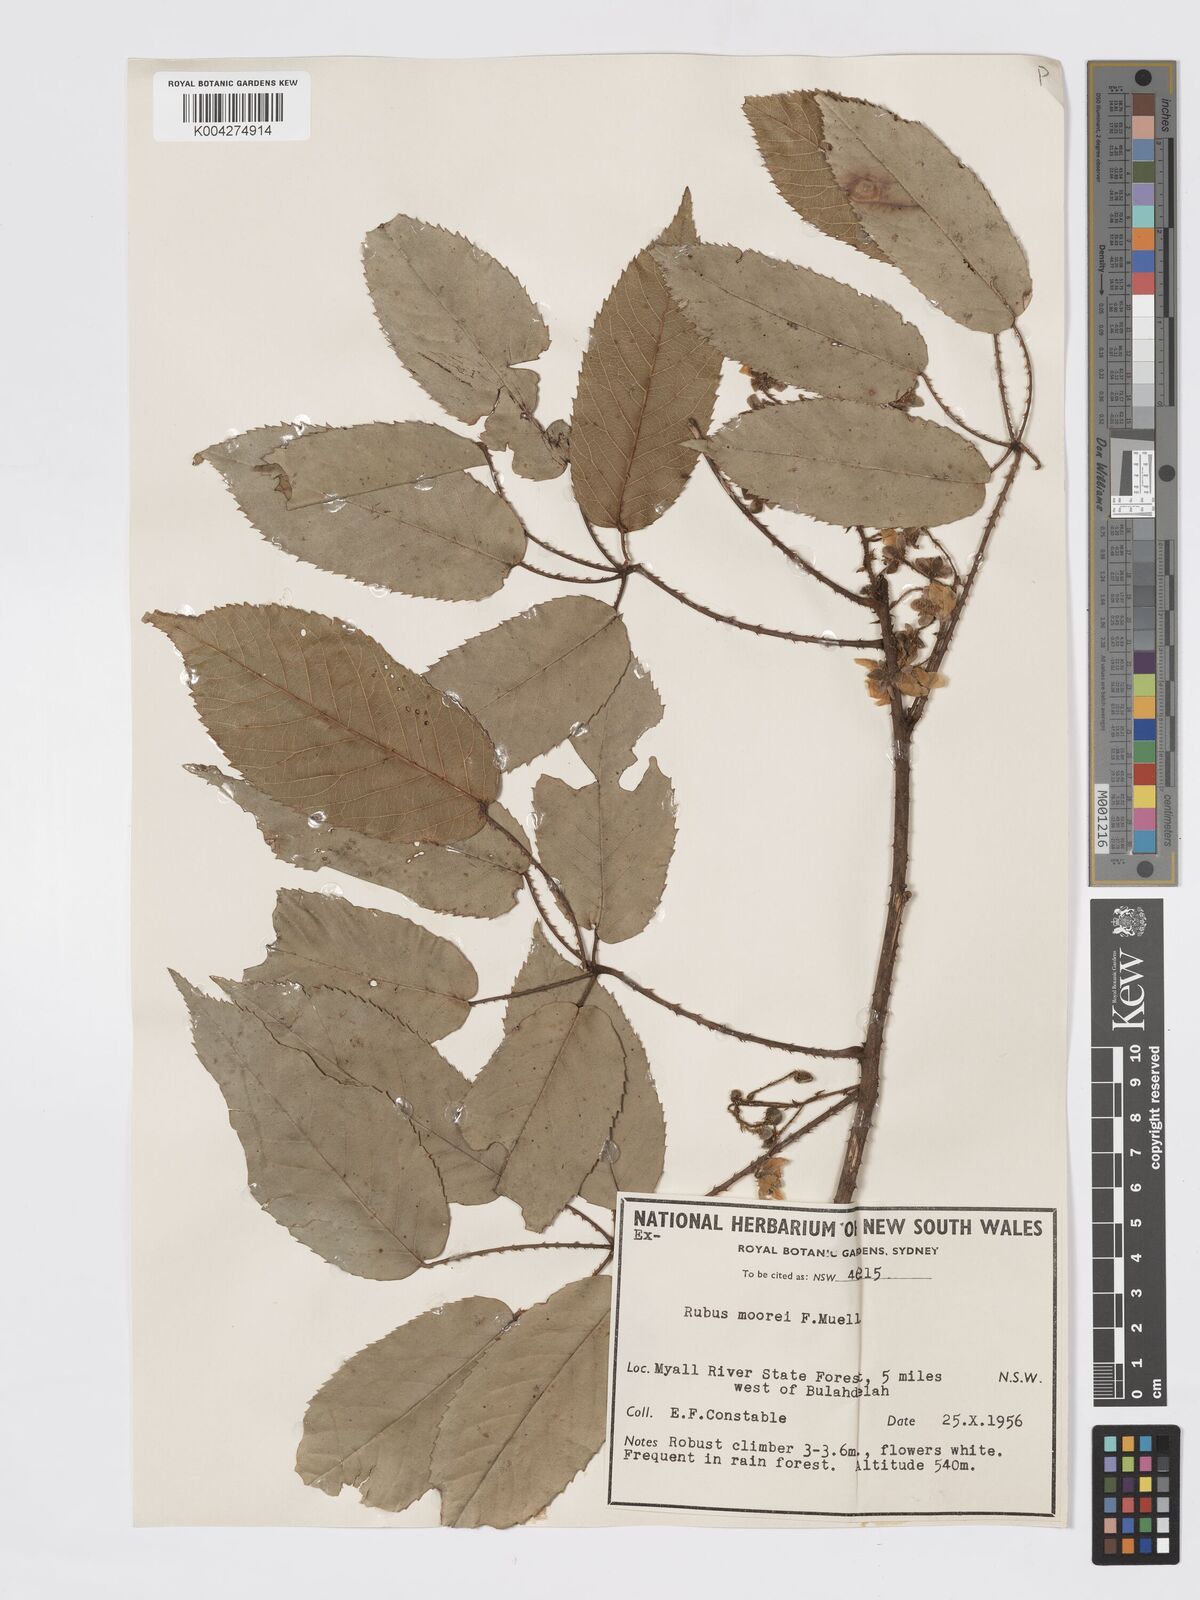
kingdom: Plantae
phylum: Tracheophyta
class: Magnoliopsida
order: Rosales
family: Rosaceae
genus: Rubus
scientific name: Rubus moorei
